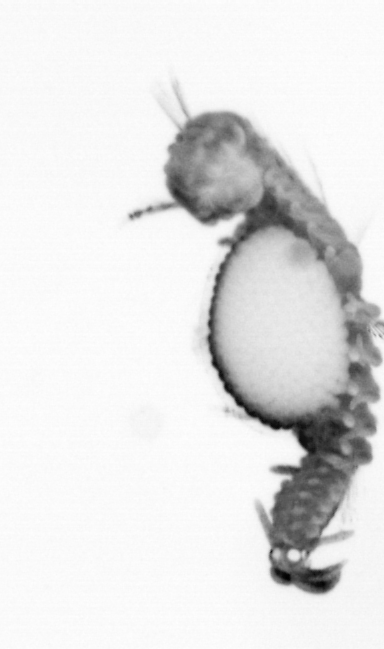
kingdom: Animalia
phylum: Annelida
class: Polychaeta
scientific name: Polychaeta
